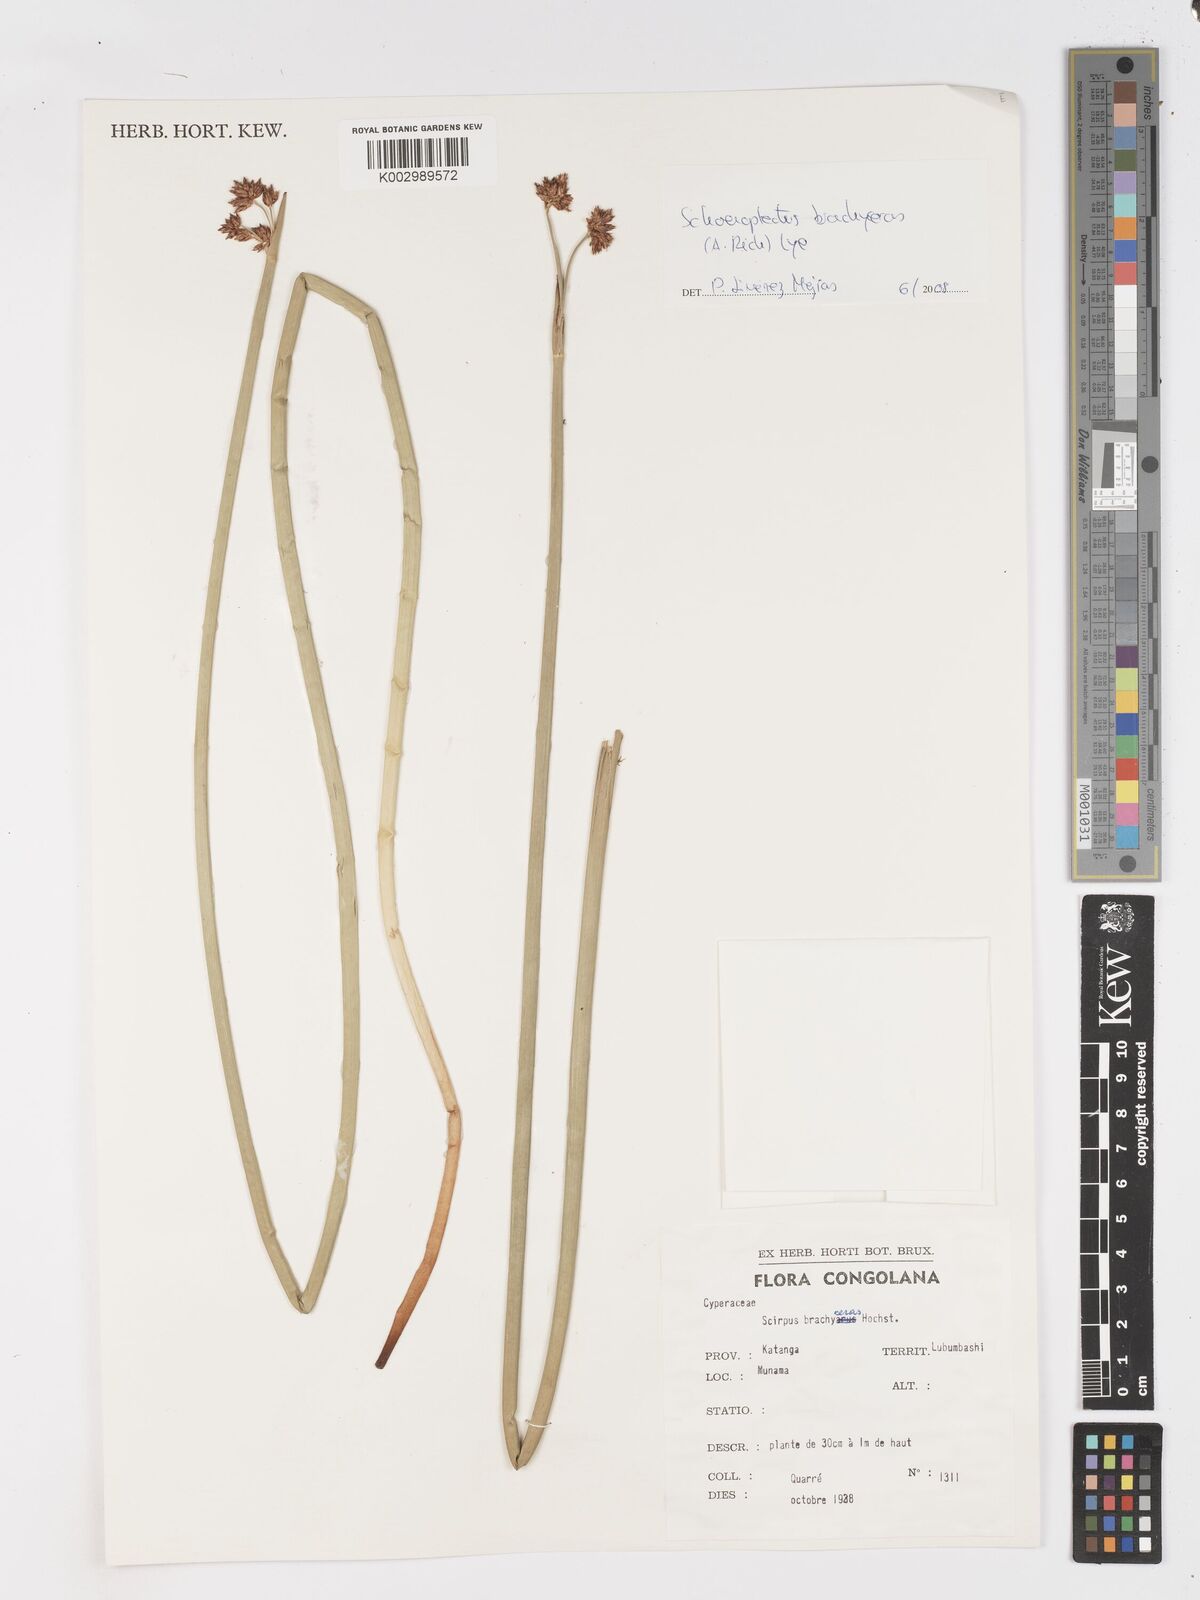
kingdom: Plantae
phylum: Tracheophyta
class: Liliopsida
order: Poales
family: Cyperaceae
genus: Schoenoplectiella
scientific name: Schoenoplectiella corymbosa
